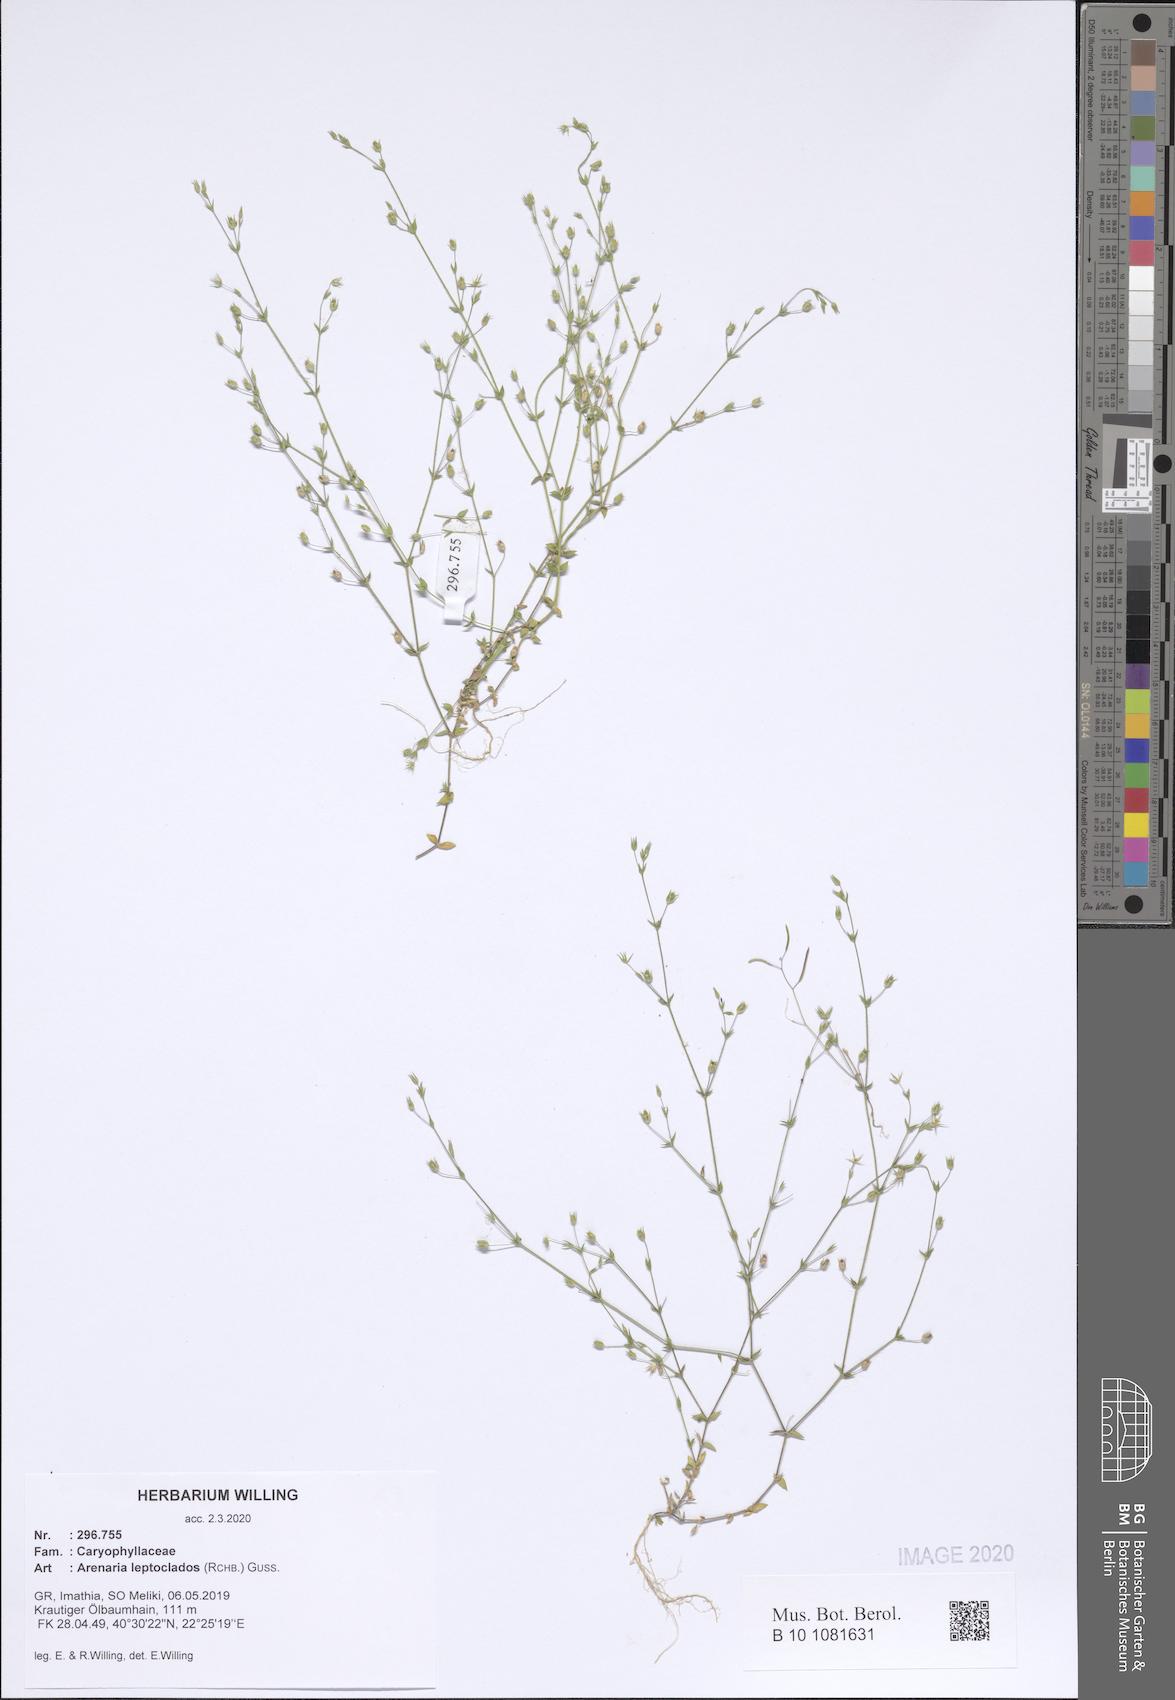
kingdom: Plantae
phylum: Tracheophyta
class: Magnoliopsida
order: Caryophyllales
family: Caryophyllaceae
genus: Arenaria
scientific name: Arenaria leptoclados
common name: Thyme-leaved sandwort
